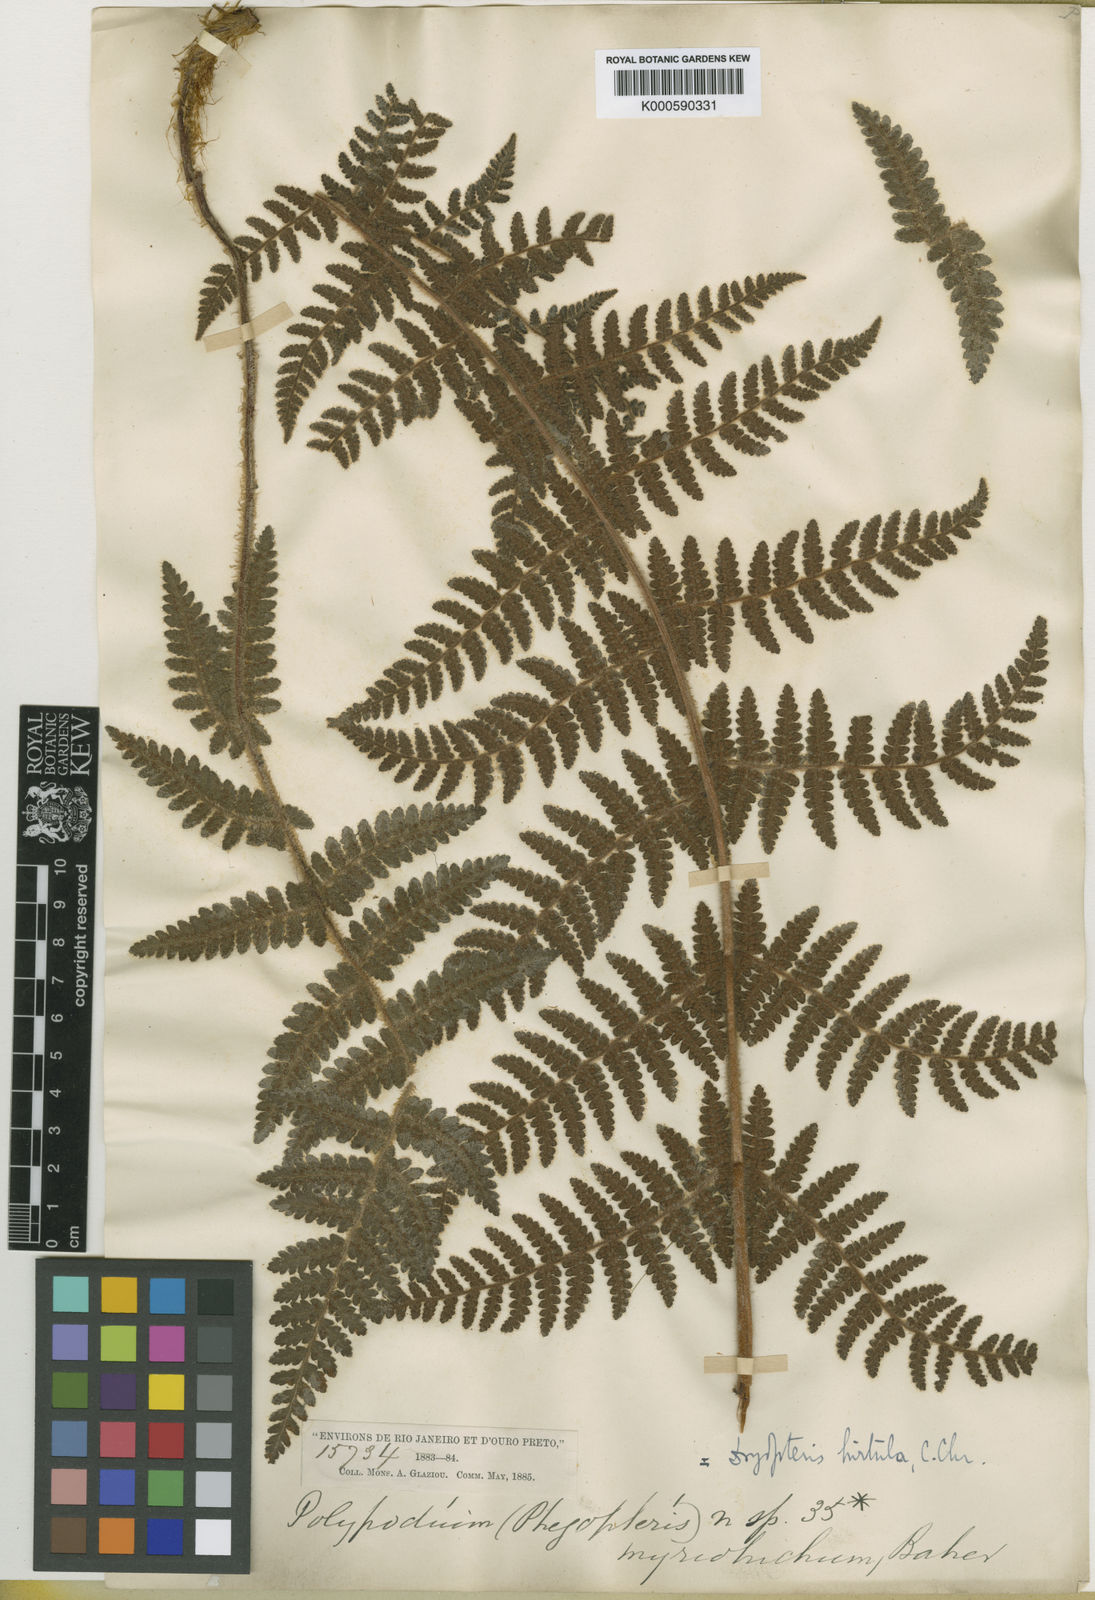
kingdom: Plantae
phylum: Tracheophyta
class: Polypodiopsida
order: Cyatheales
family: Cyatheaceae
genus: Cyathea
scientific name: Cyathea myriotricha
